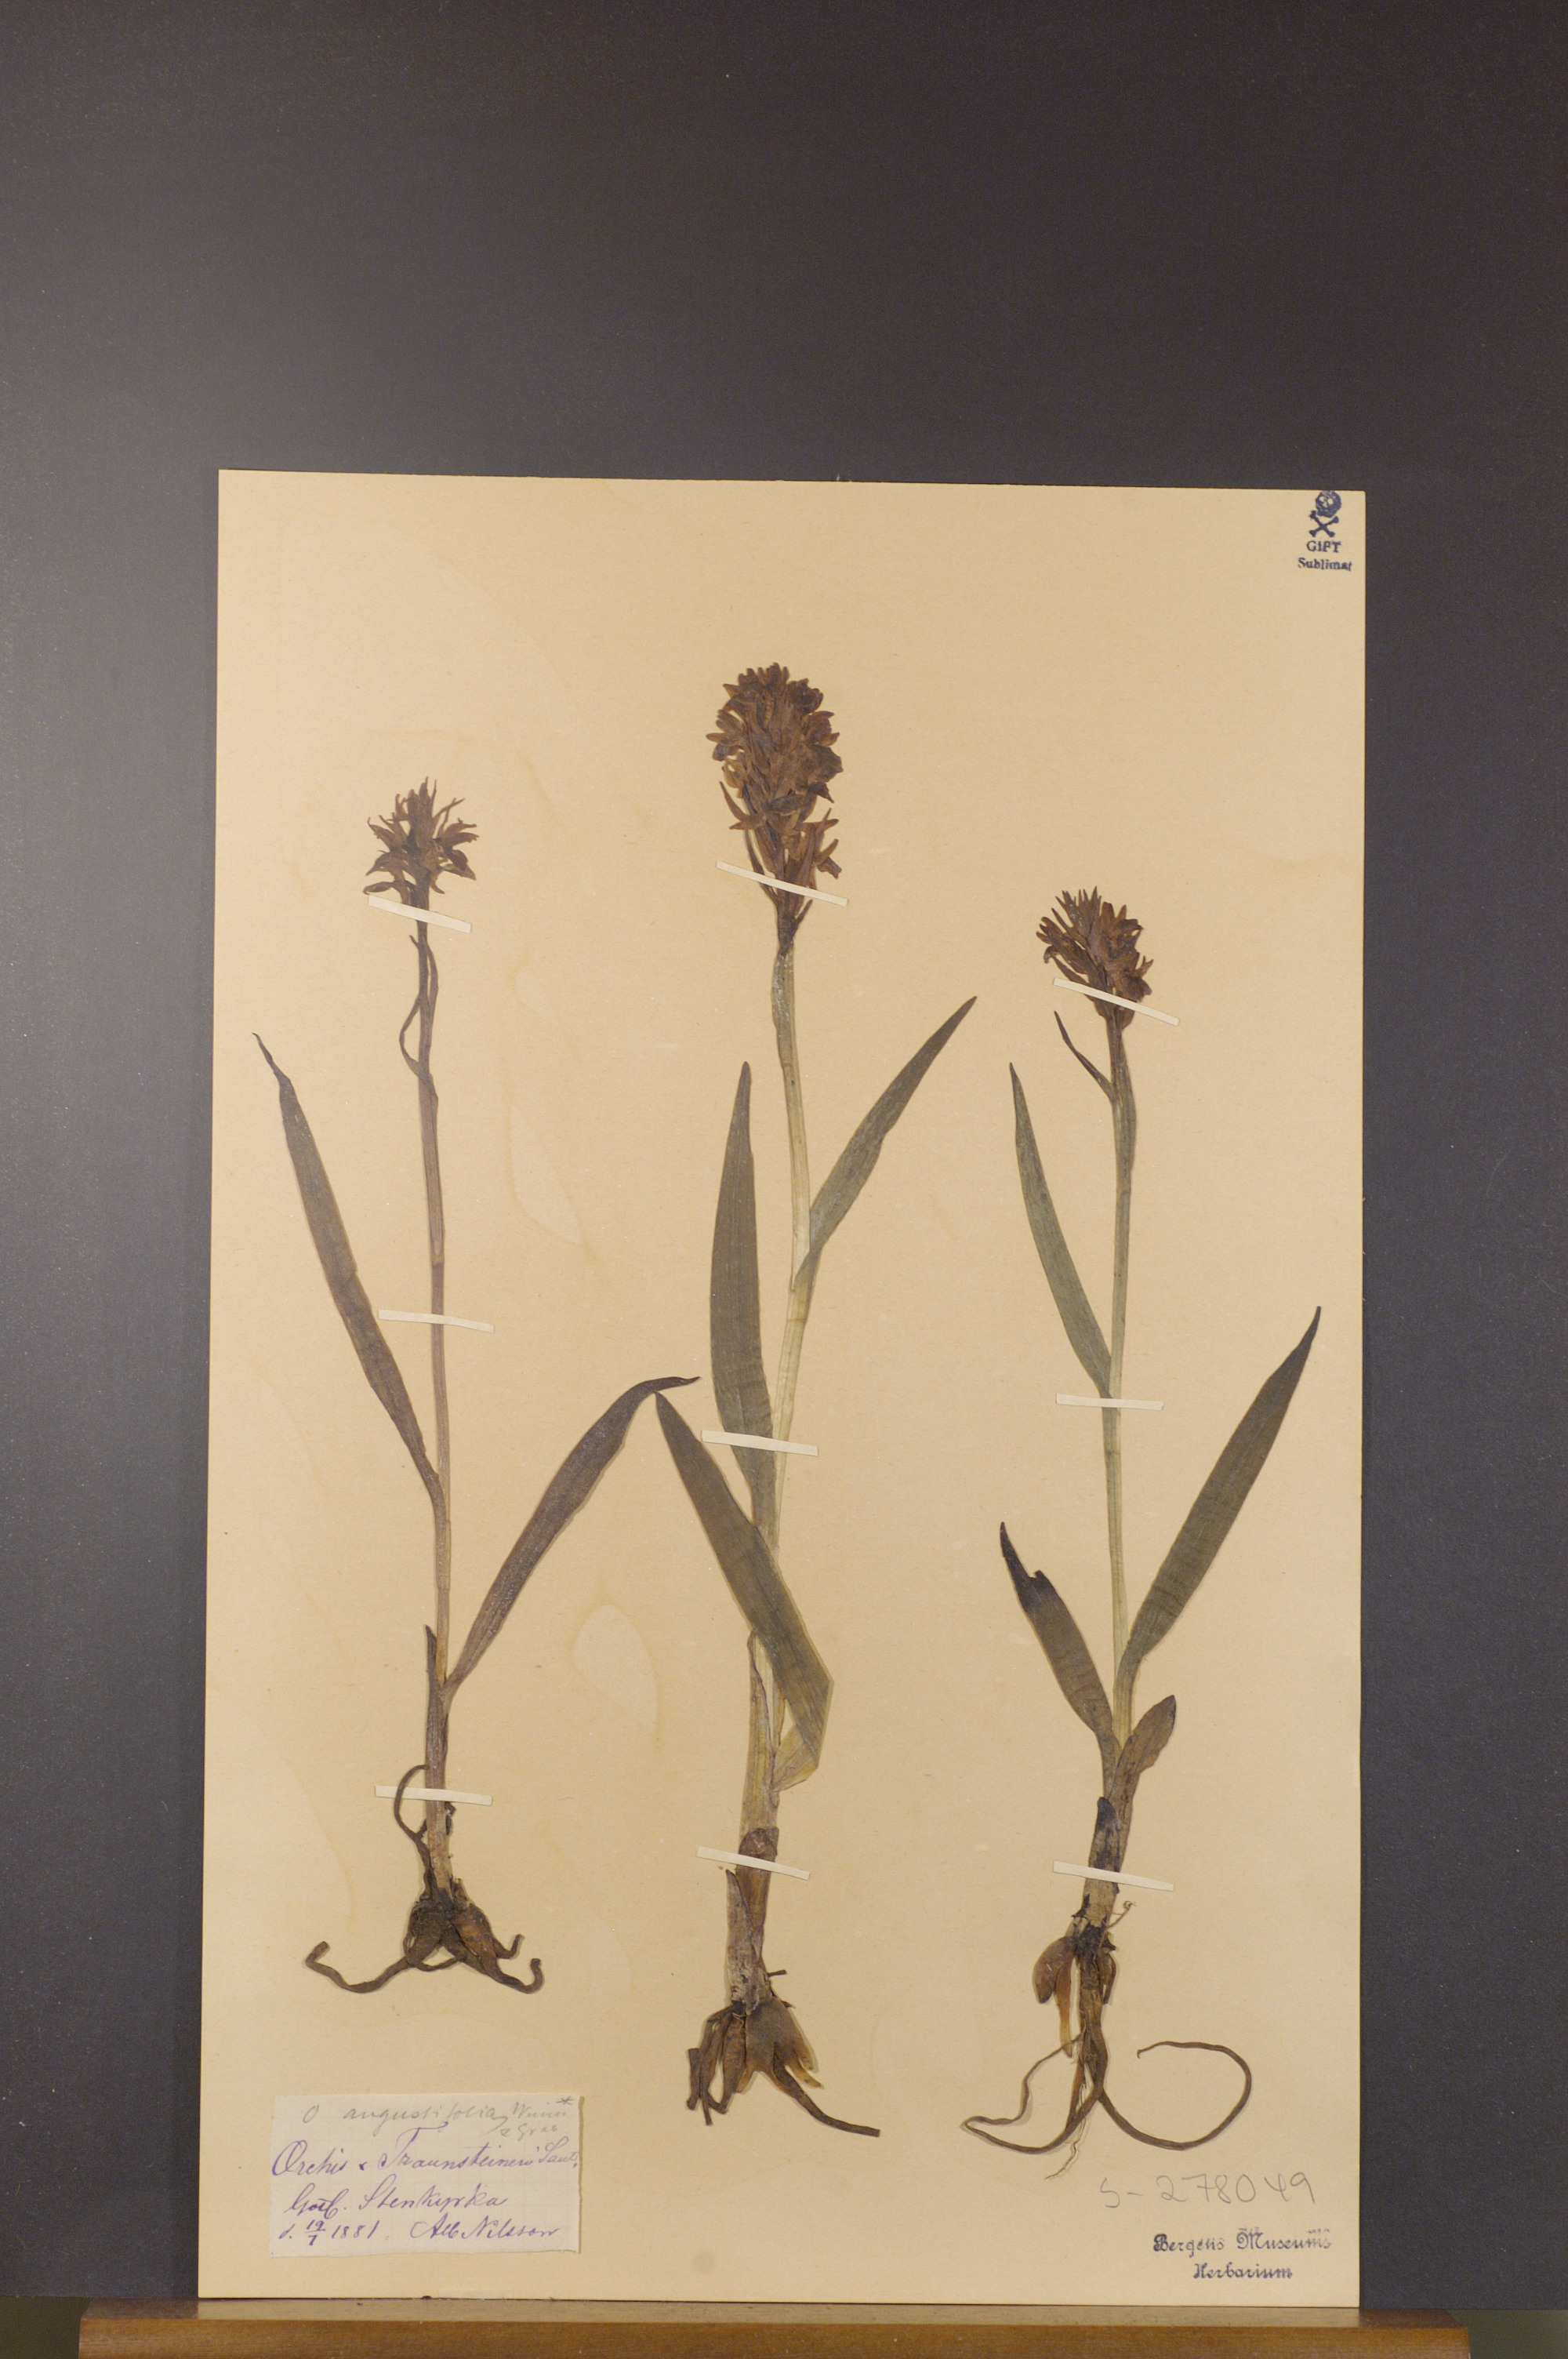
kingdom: Plantae
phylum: Tracheophyta
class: Liliopsida
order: Asparagales
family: Orchidaceae
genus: Dactylorhiza
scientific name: Dactylorhiza majalis
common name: Marsh orchid
